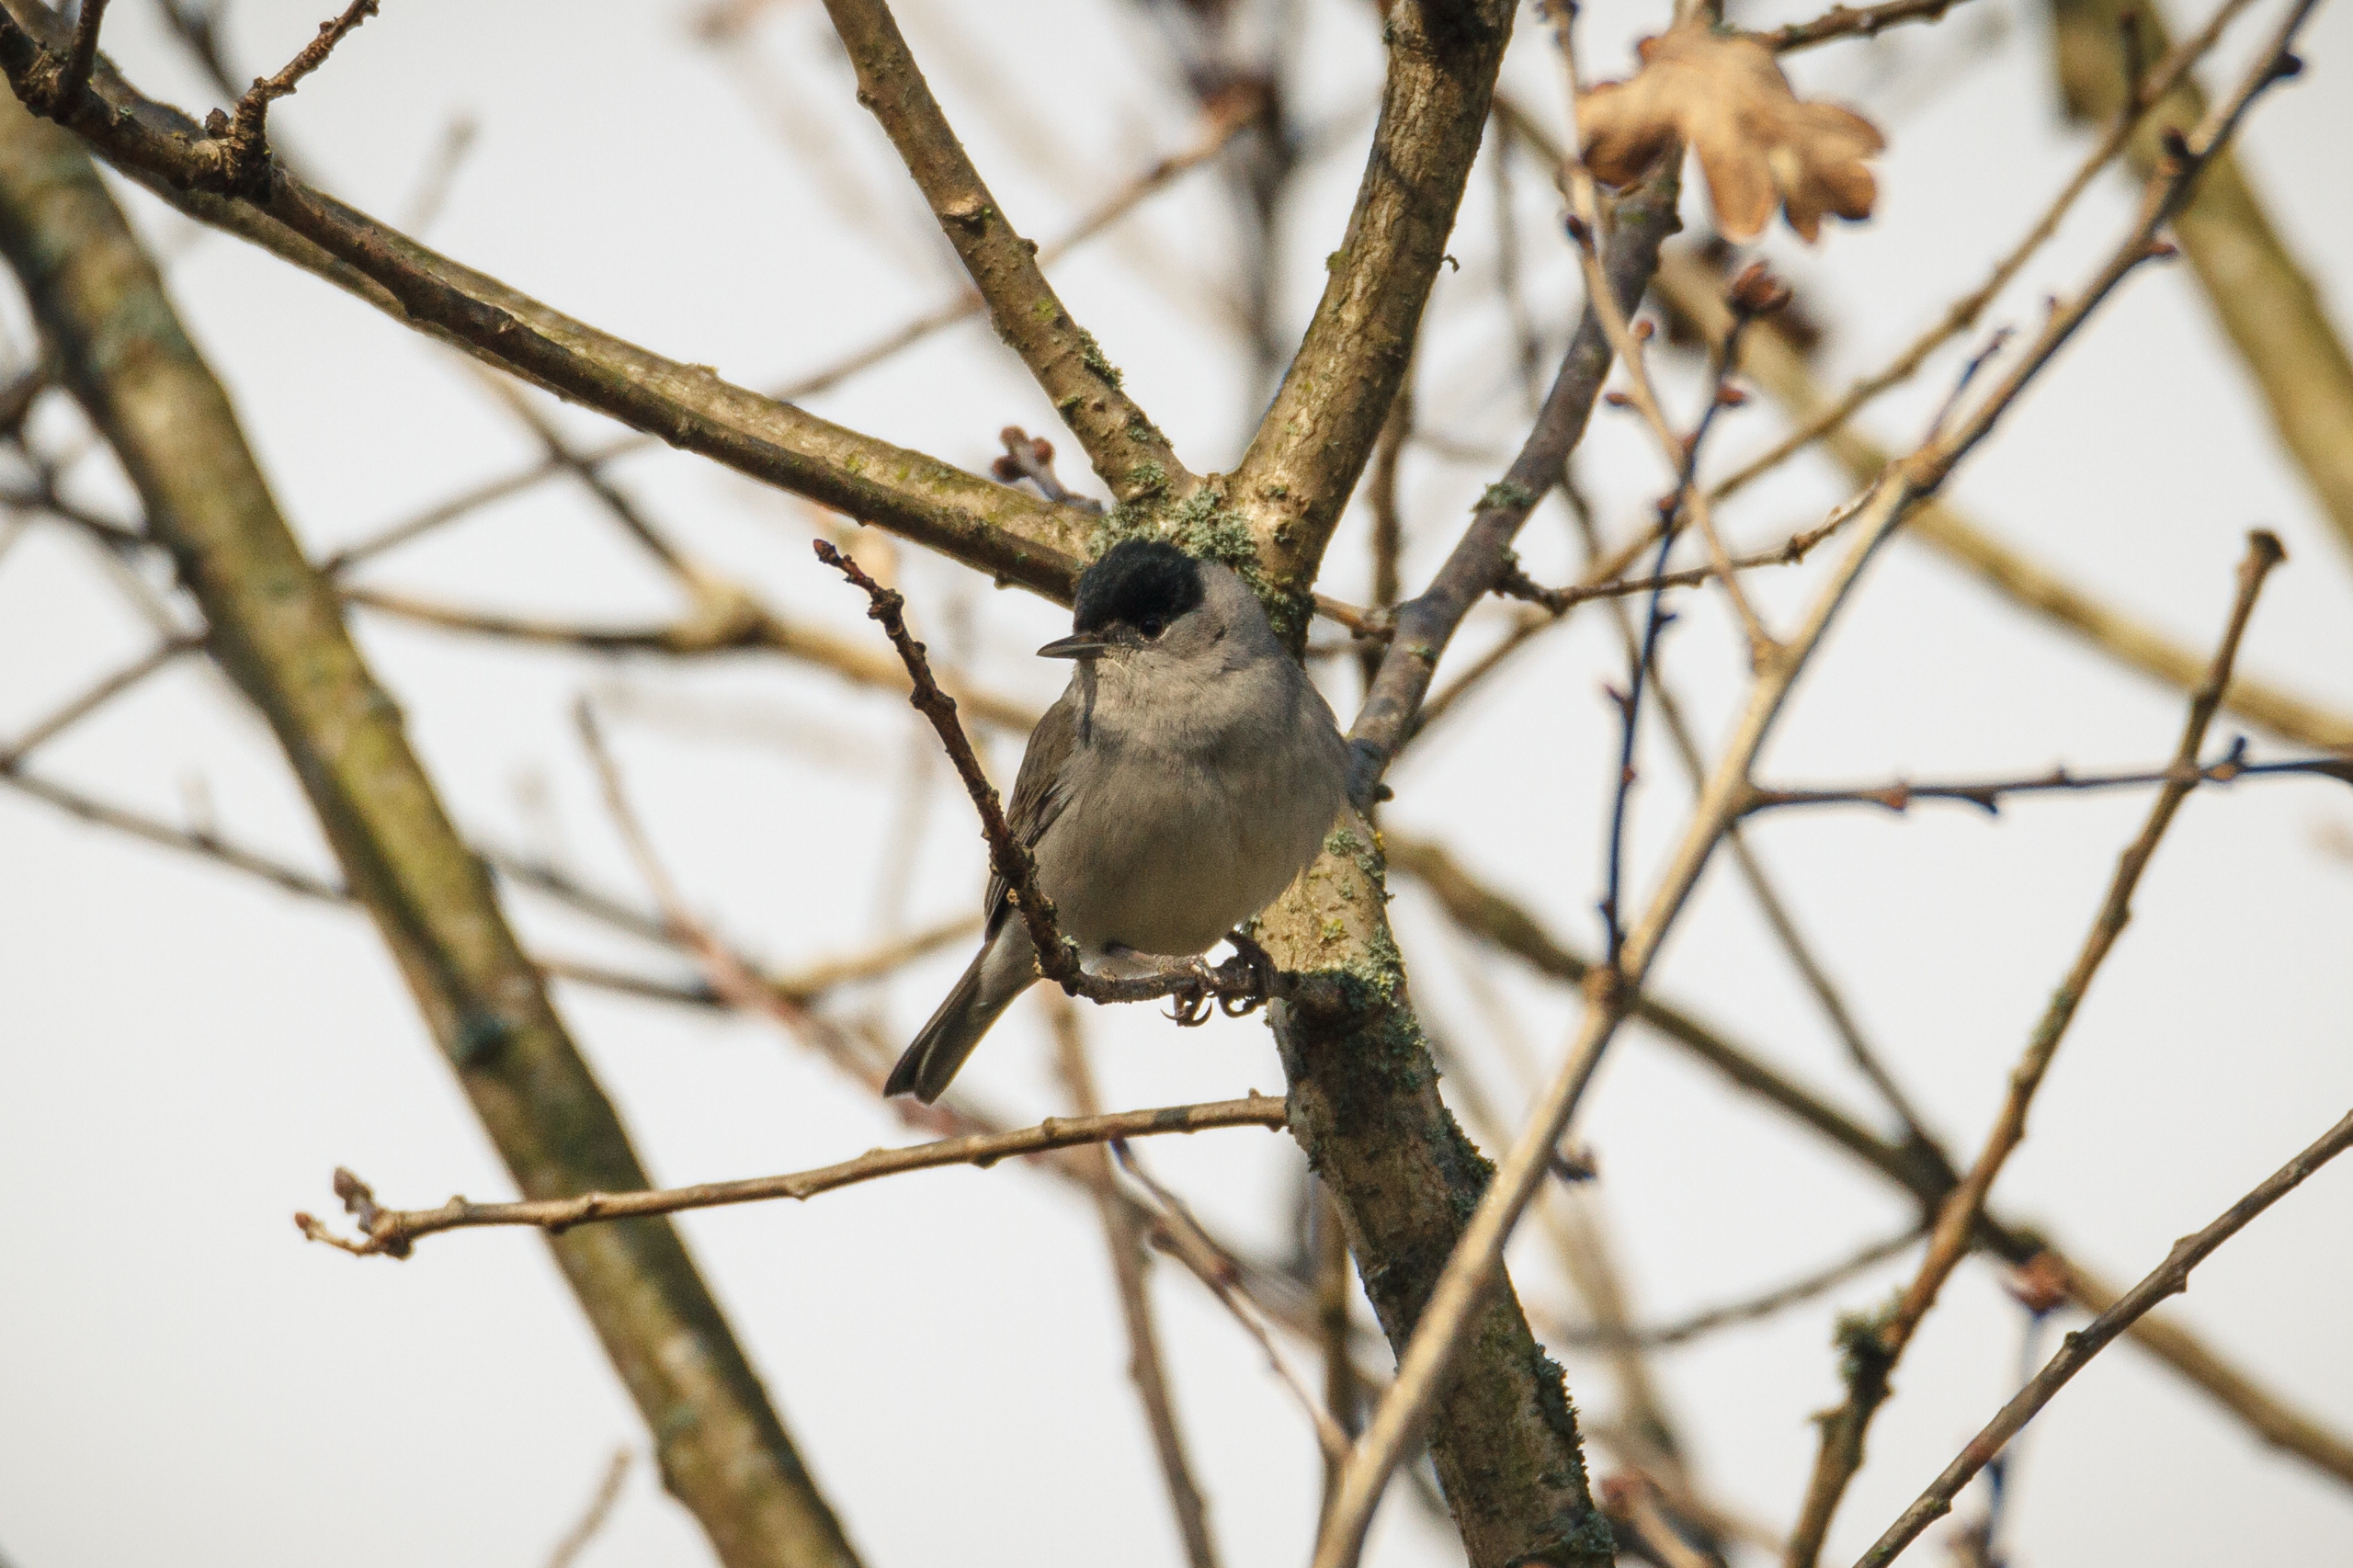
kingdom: Animalia
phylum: Chordata
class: Aves
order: Passeriformes
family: Sylviidae
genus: Sylvia
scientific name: Sylvia atricapilla
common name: Munk
